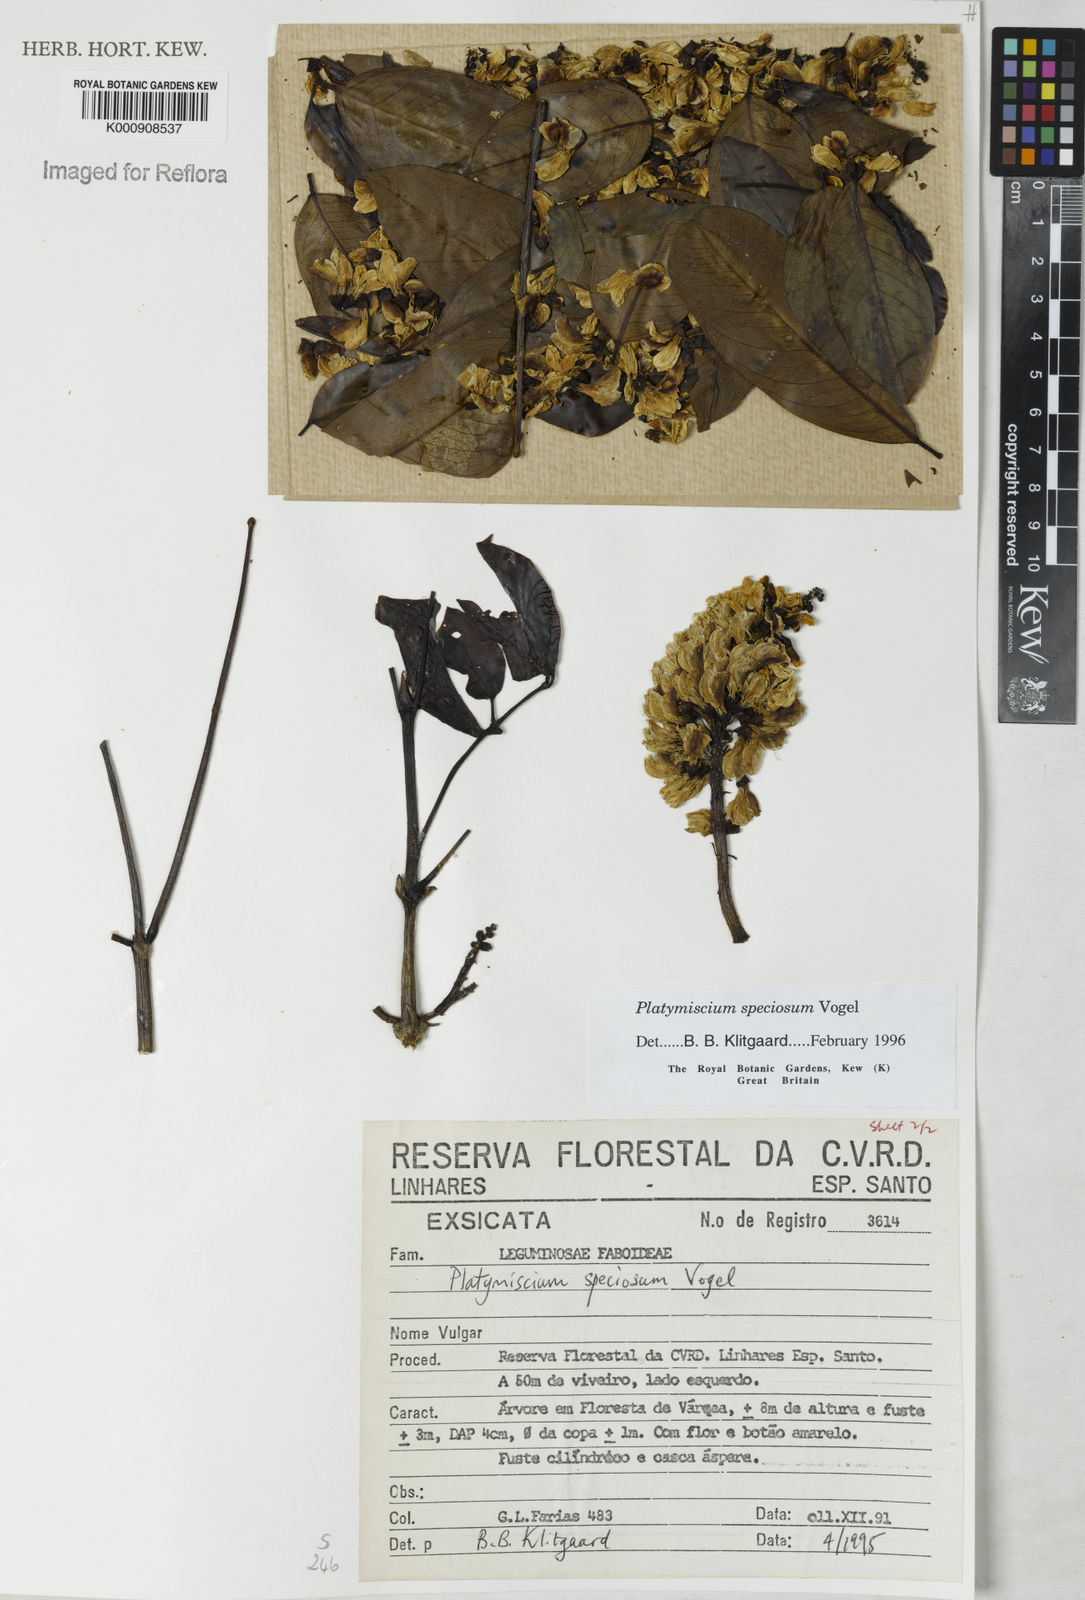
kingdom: Plantae
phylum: Tracheophyta
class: Magnoliopsida
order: Fabales
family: Fabaceae
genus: Platymiscium
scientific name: Platymiscium speciosum
